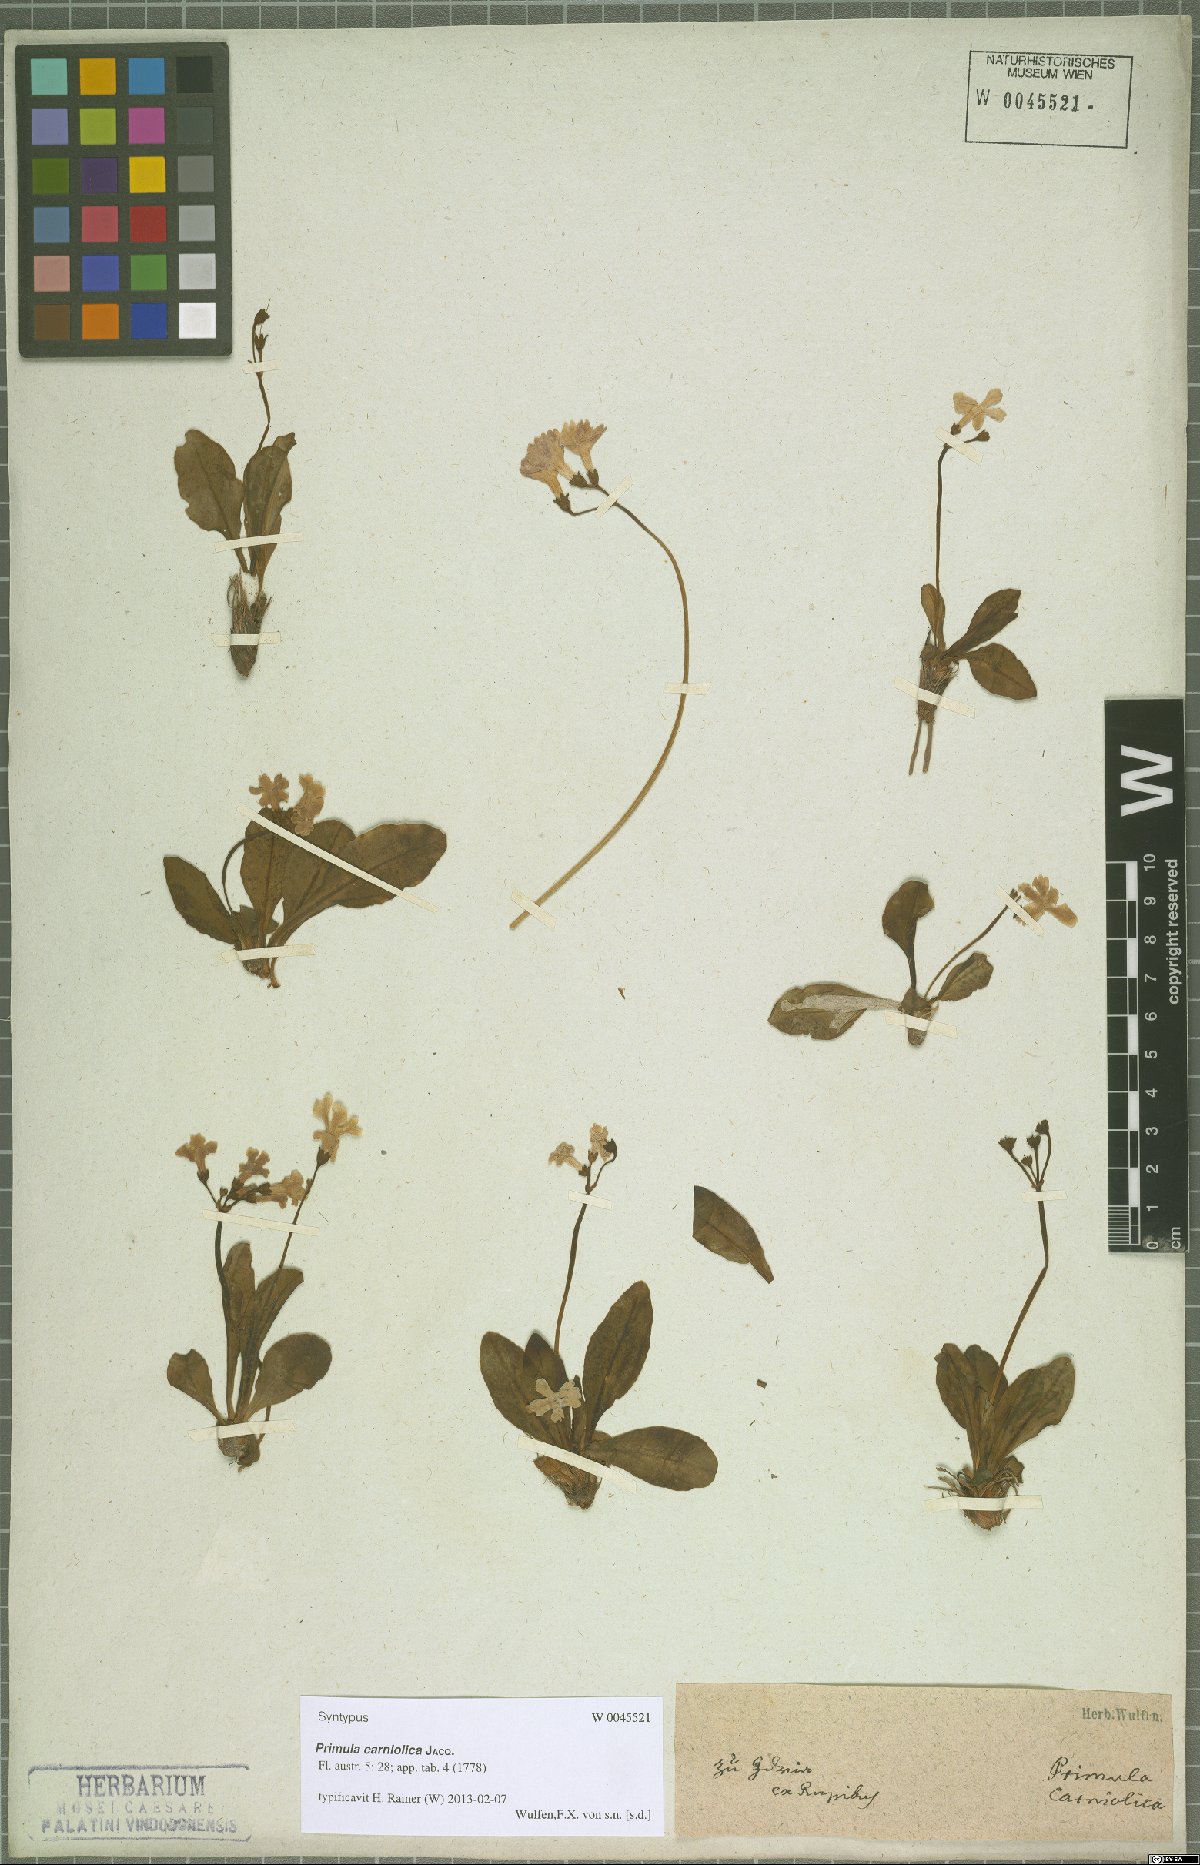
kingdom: Plantae
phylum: Tracheophyta
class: Magnoliopsida
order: Ericales
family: Primulaceae
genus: Primula
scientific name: Primula carniolica
